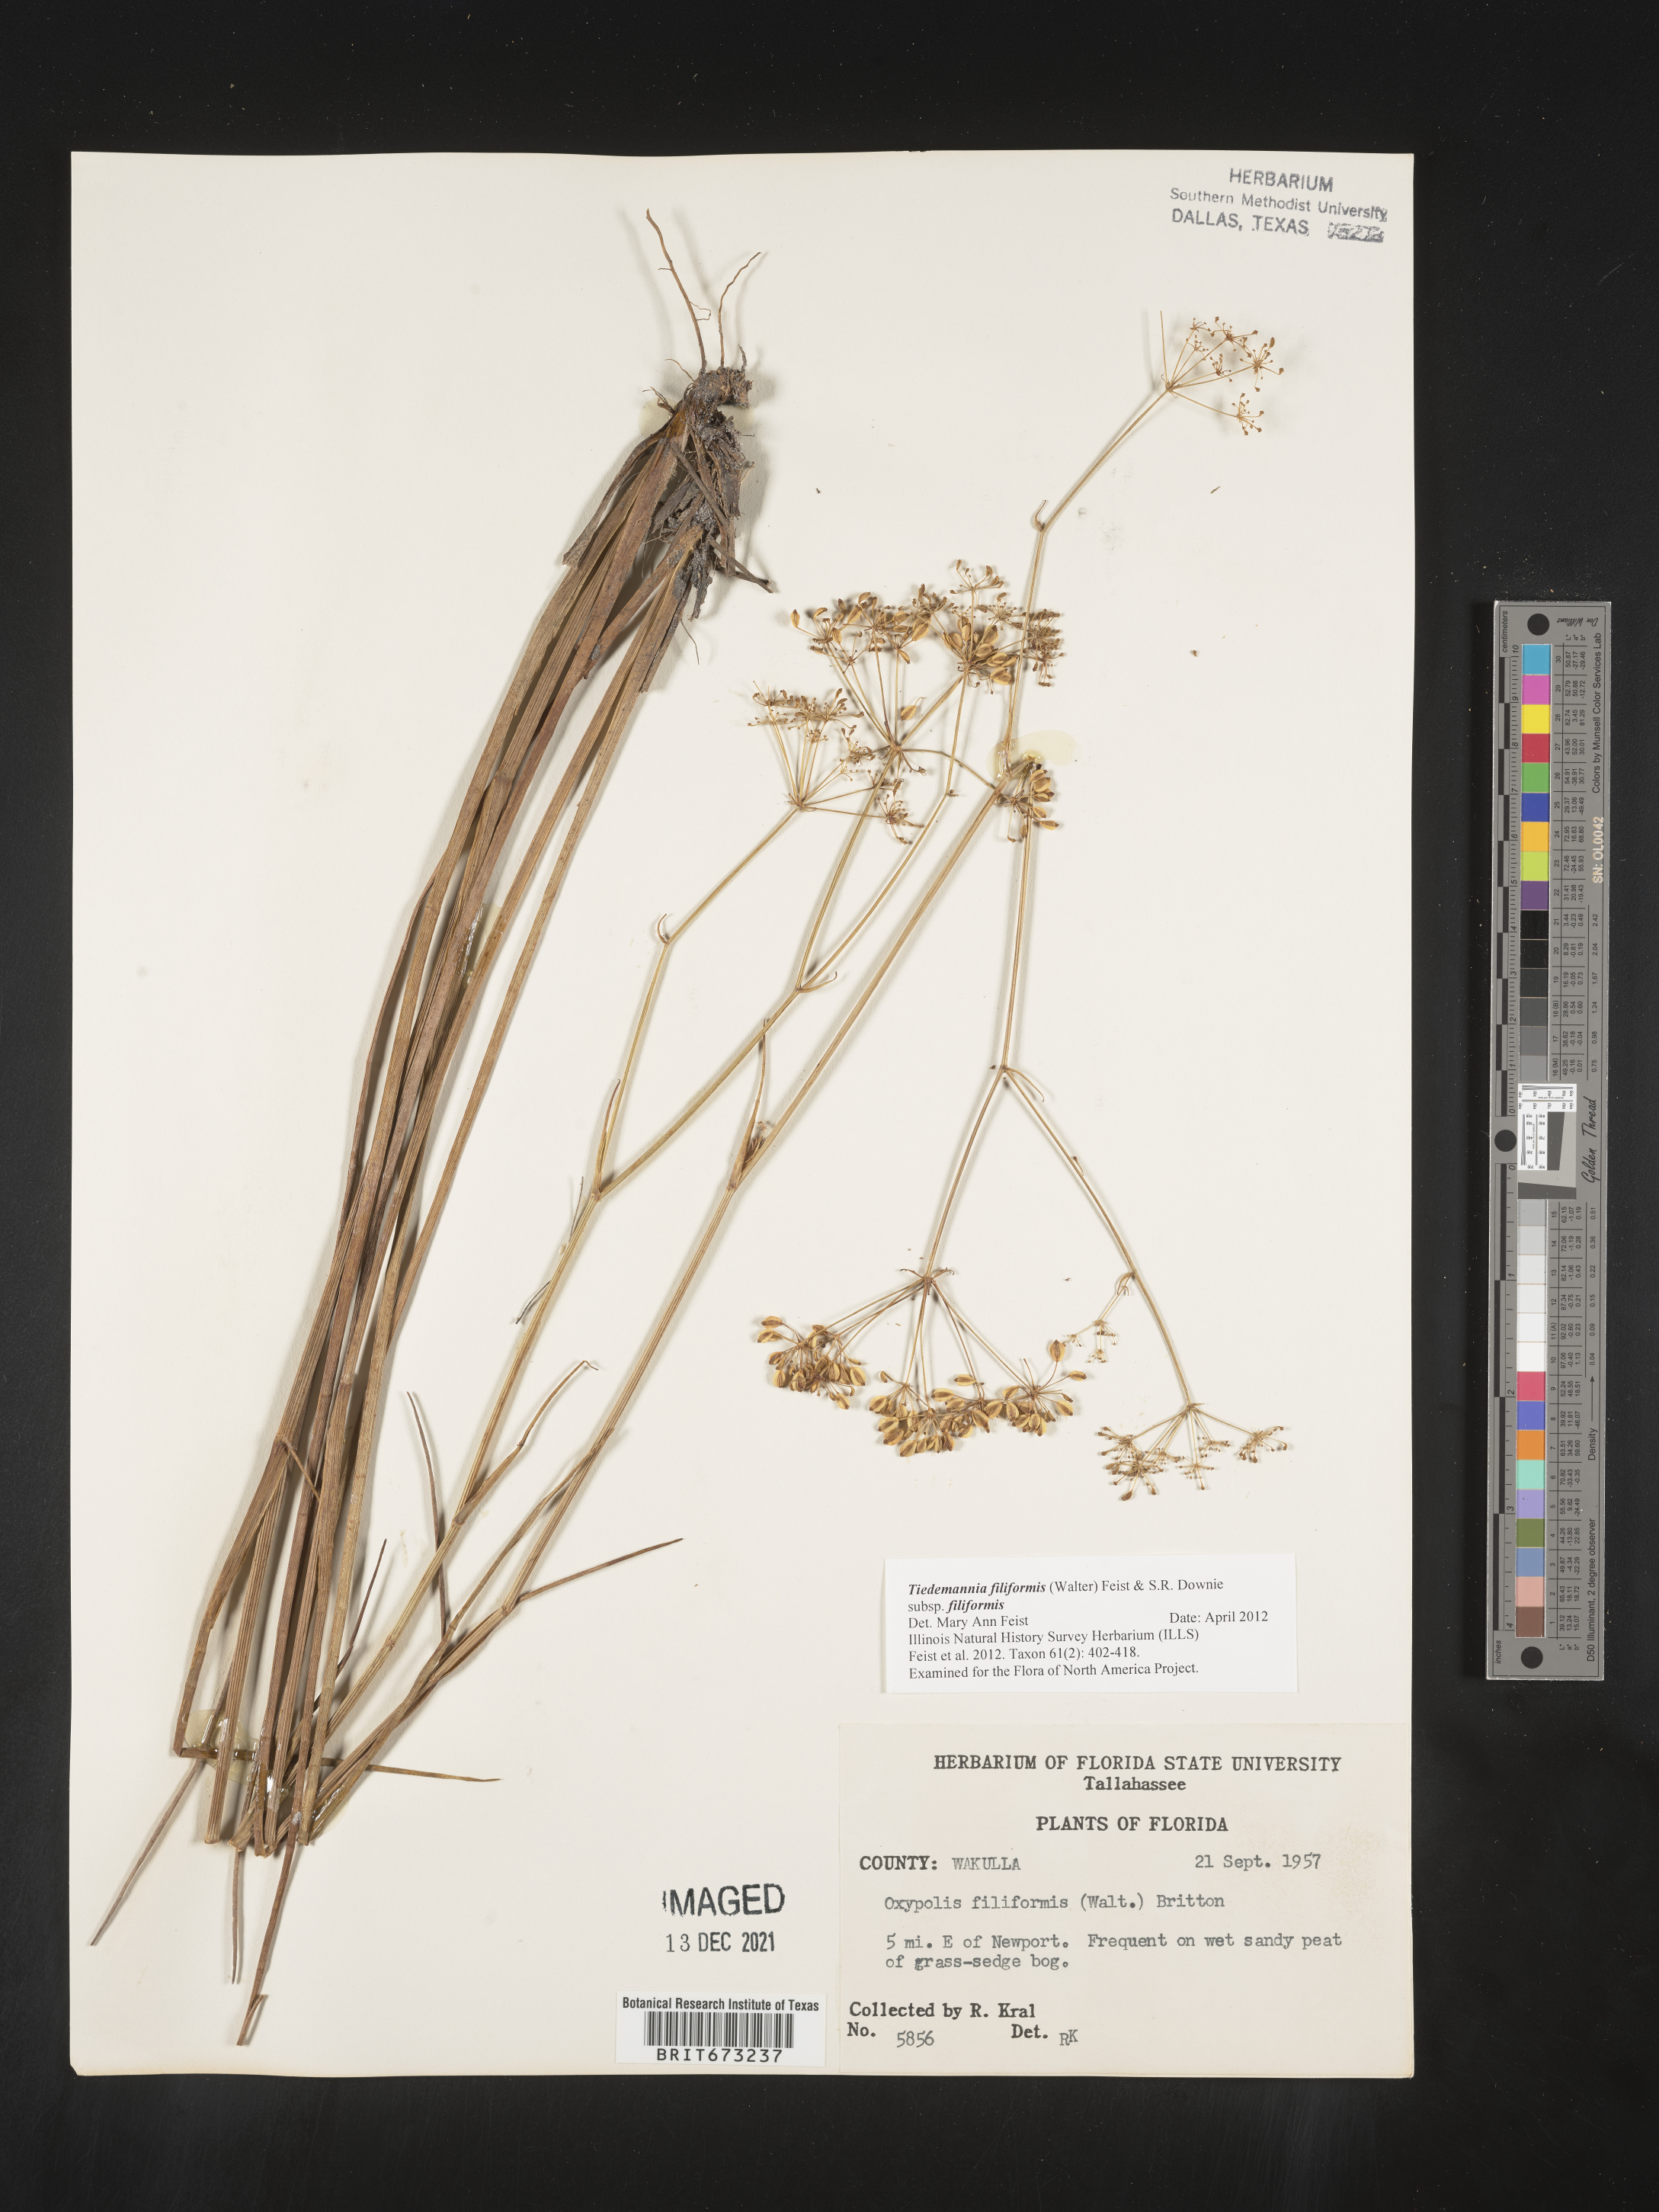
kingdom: Plantae
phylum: Tracheophyta
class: Magnoliopsida
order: Apiales
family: Apiaceae
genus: Tiedemannia
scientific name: Tiedemannia
